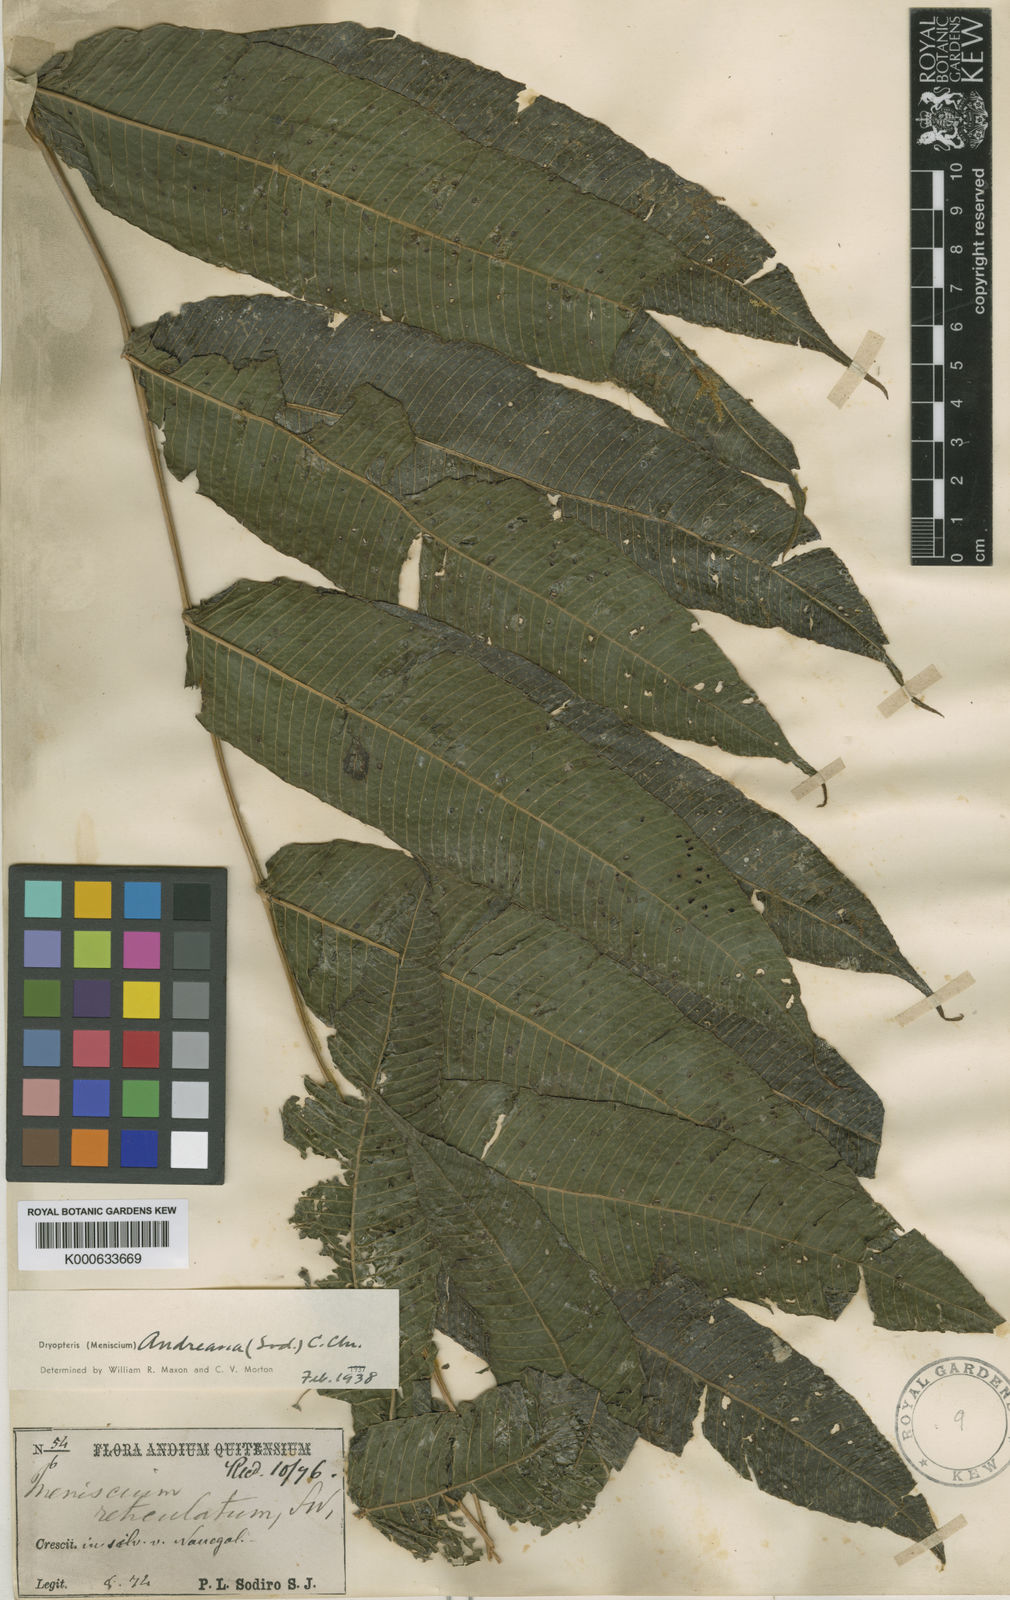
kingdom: Plantae
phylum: Tracheophyta
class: Polypodiopsida
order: Polypodiales
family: Thelypteridaceae
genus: Meniscium
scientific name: Meniscium andreanum
